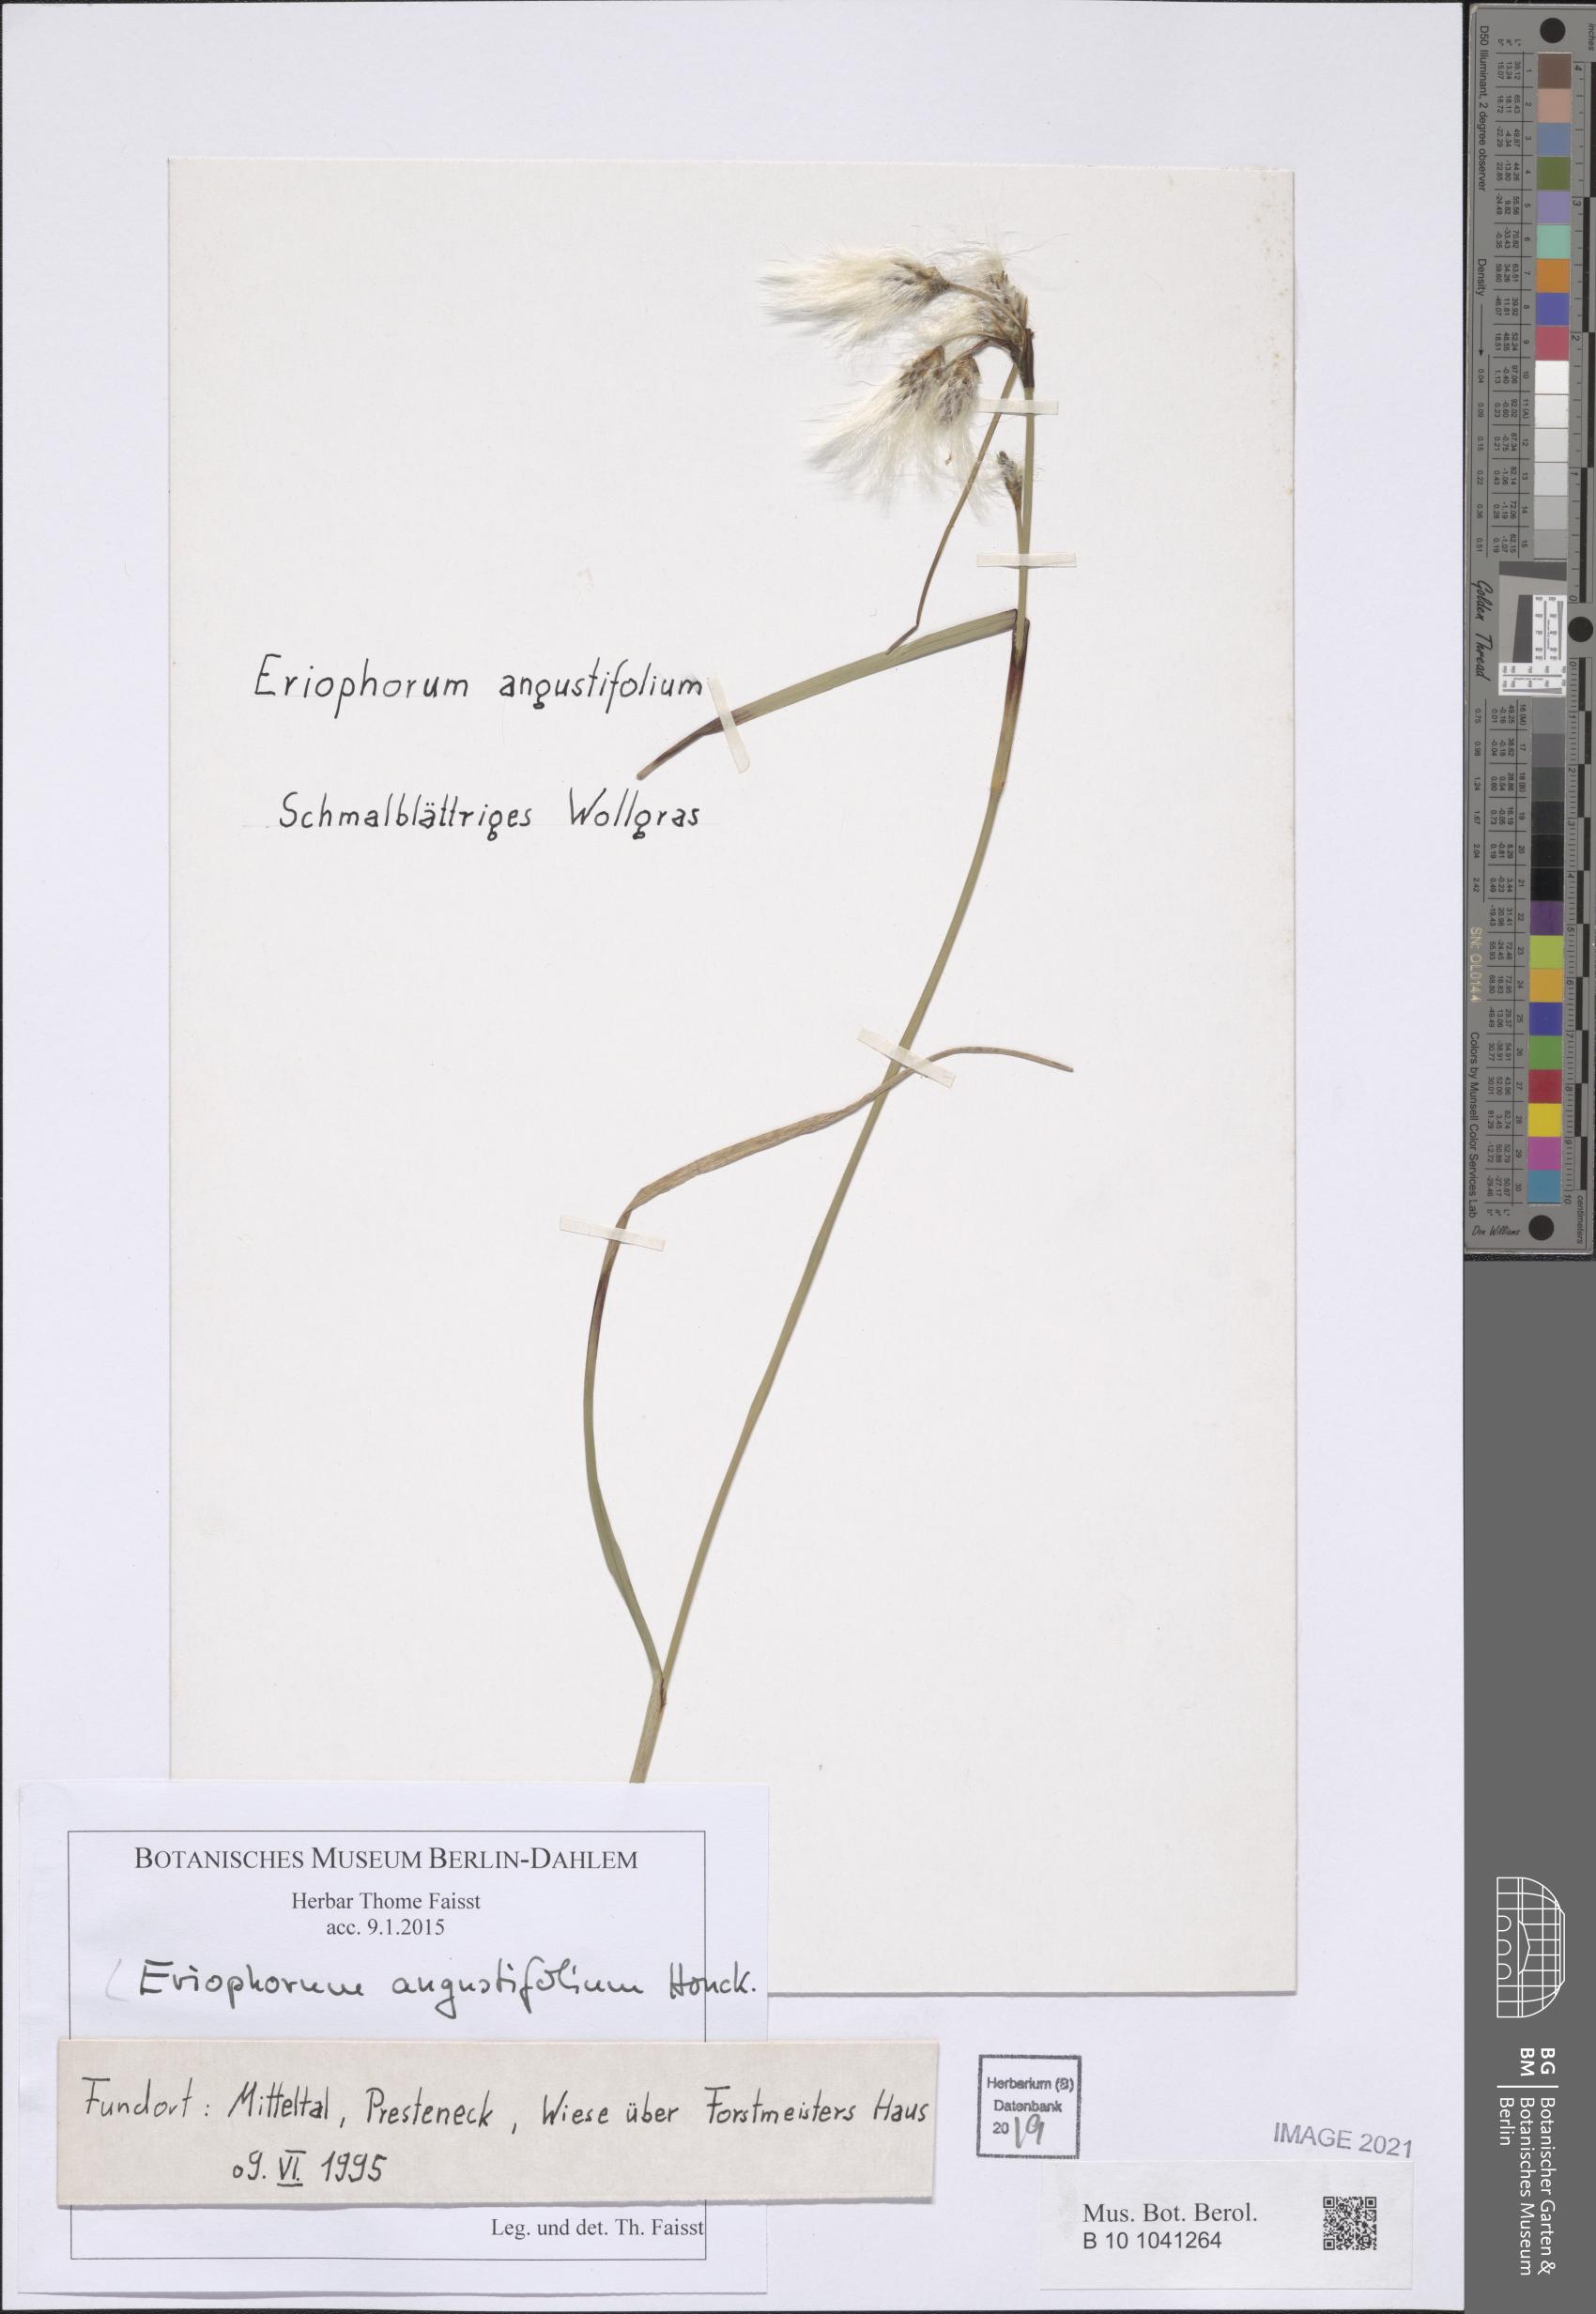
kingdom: Plantae
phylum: Tracheophyta
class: Liliopsida
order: Poales
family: Cyperaceae
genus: Eriophorum
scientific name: Eriophorum angustifolium
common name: Common cottongrass
